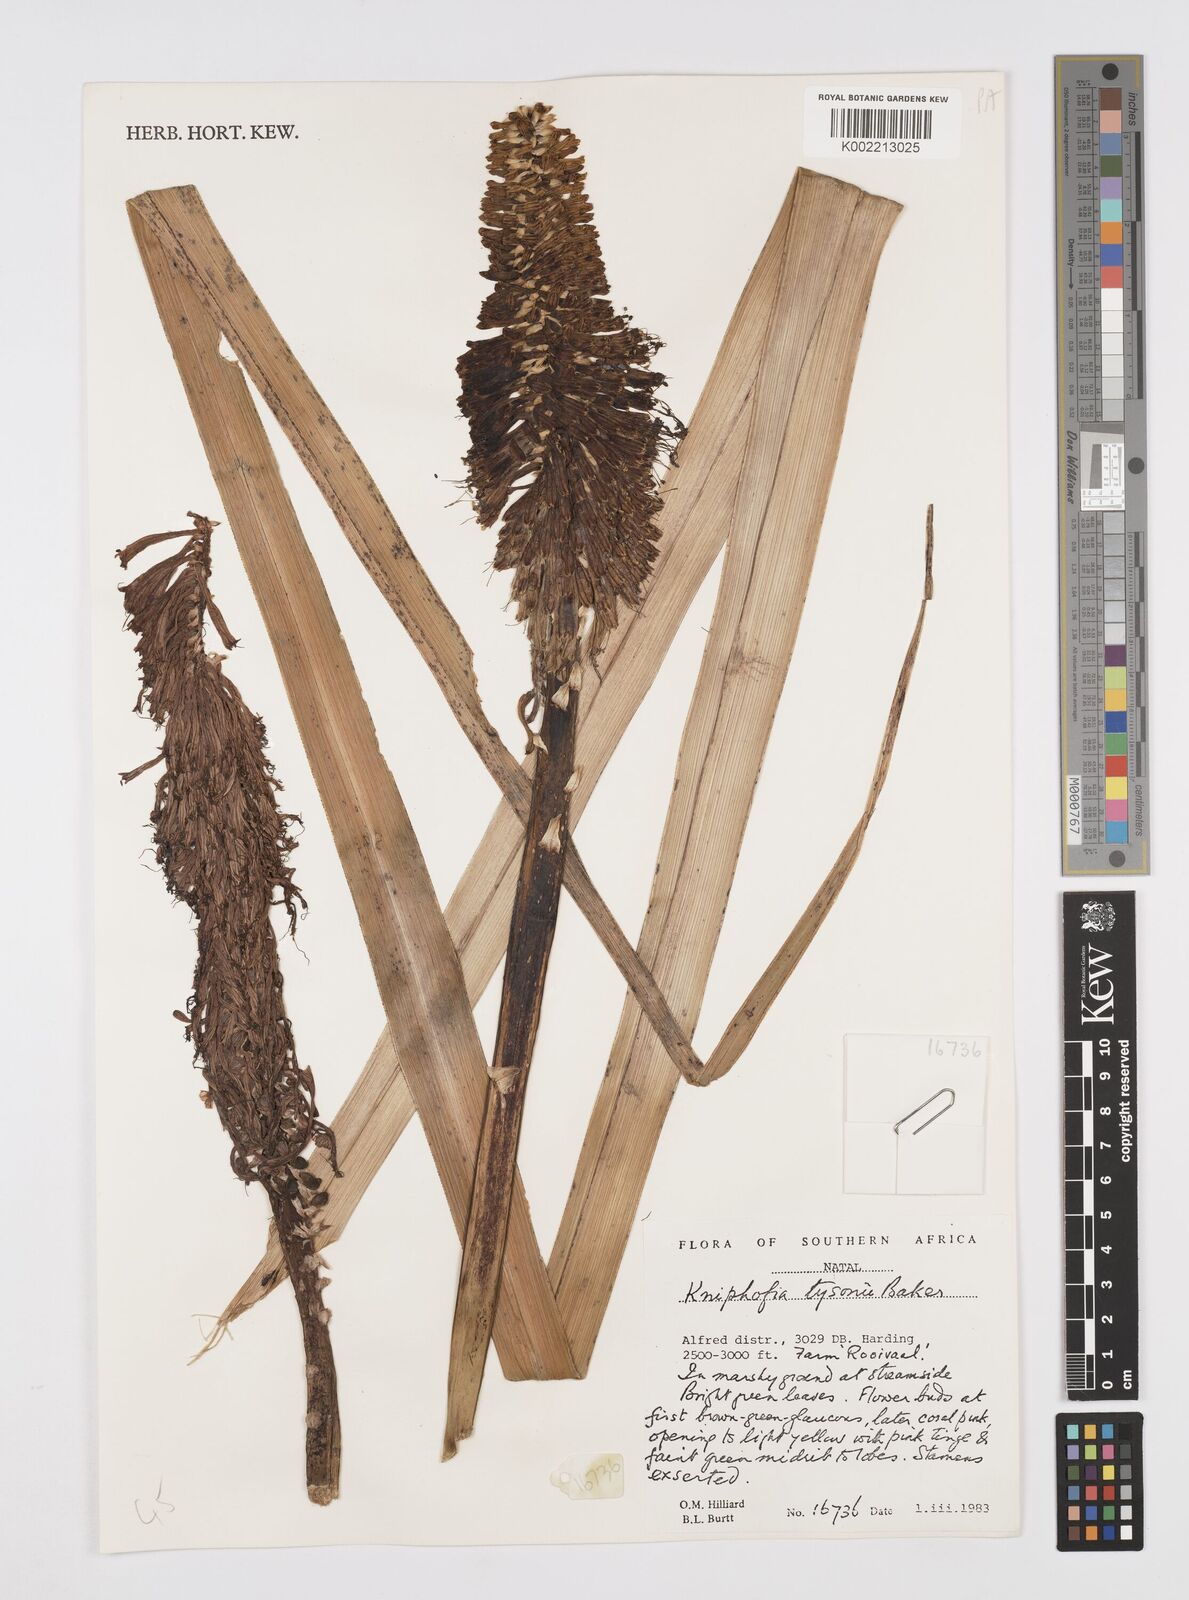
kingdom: Plantae
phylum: Tracheophyta
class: Liliopsida
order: Asparagales
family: Asphodelaceae
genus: Kniphofia
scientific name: Kniphofia tysonii
